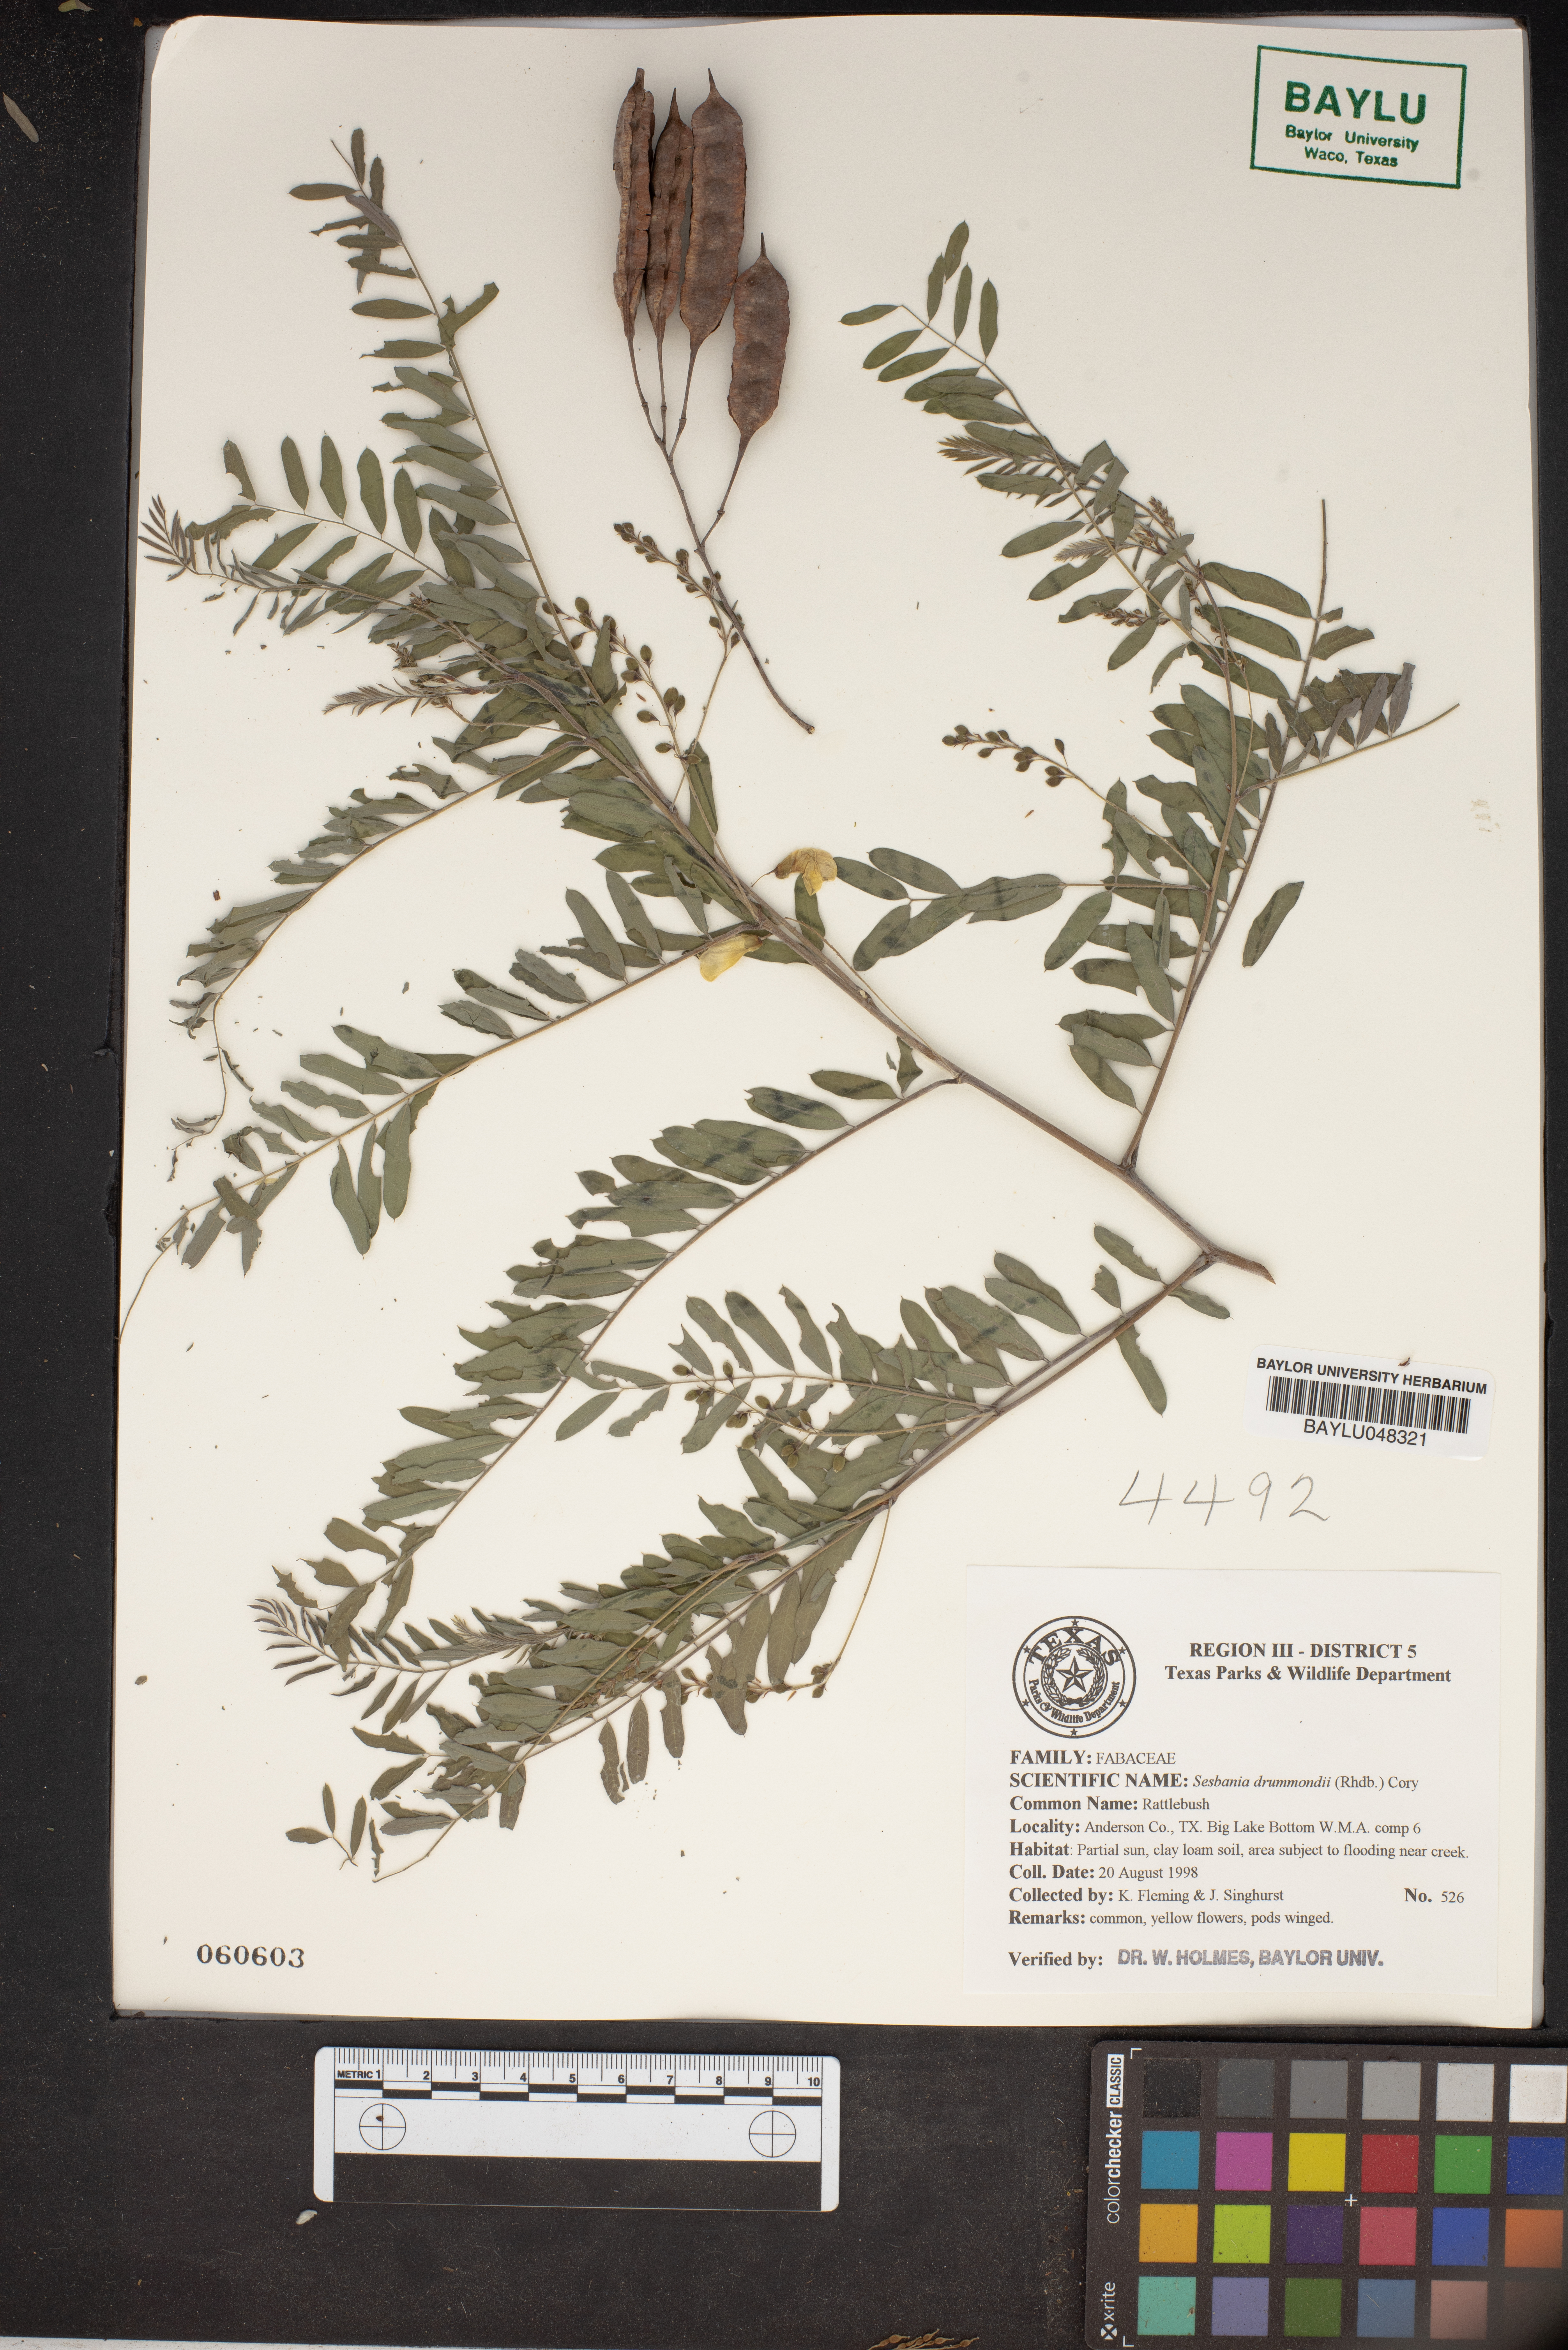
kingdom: Plantae
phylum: Tracheophyta
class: Magnoliopsida
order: Fabales
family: Fabaceae
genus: Sesbania
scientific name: Sesbania drummondii
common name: Poison-bean
